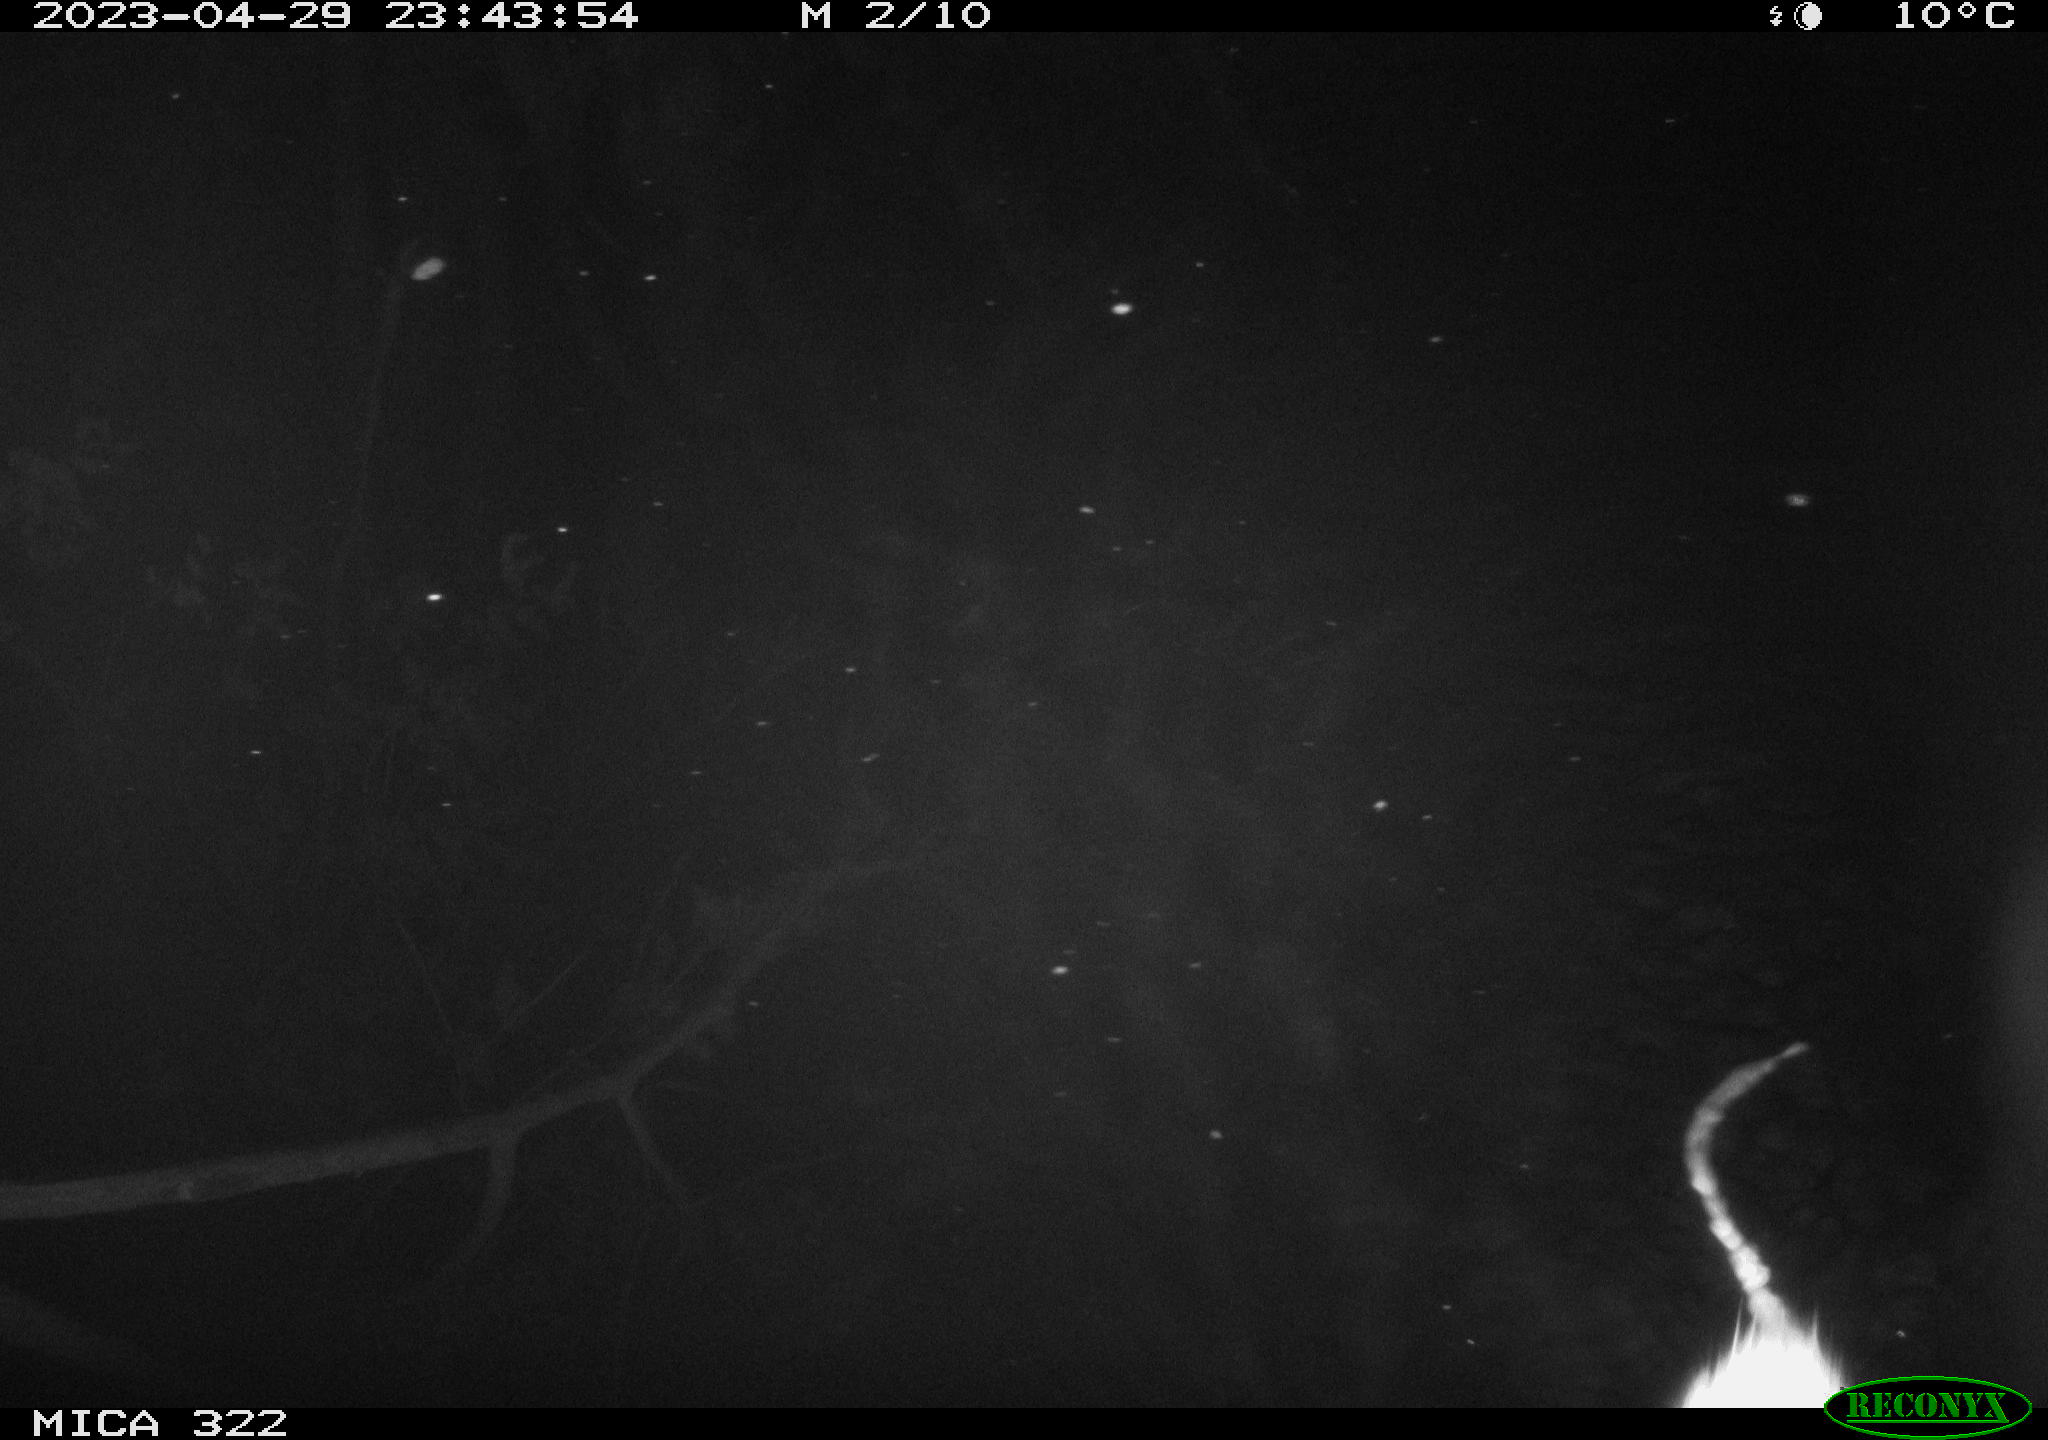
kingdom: Animalia
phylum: Chordata
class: Mammalia
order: Rodentia
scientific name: Rodentia
